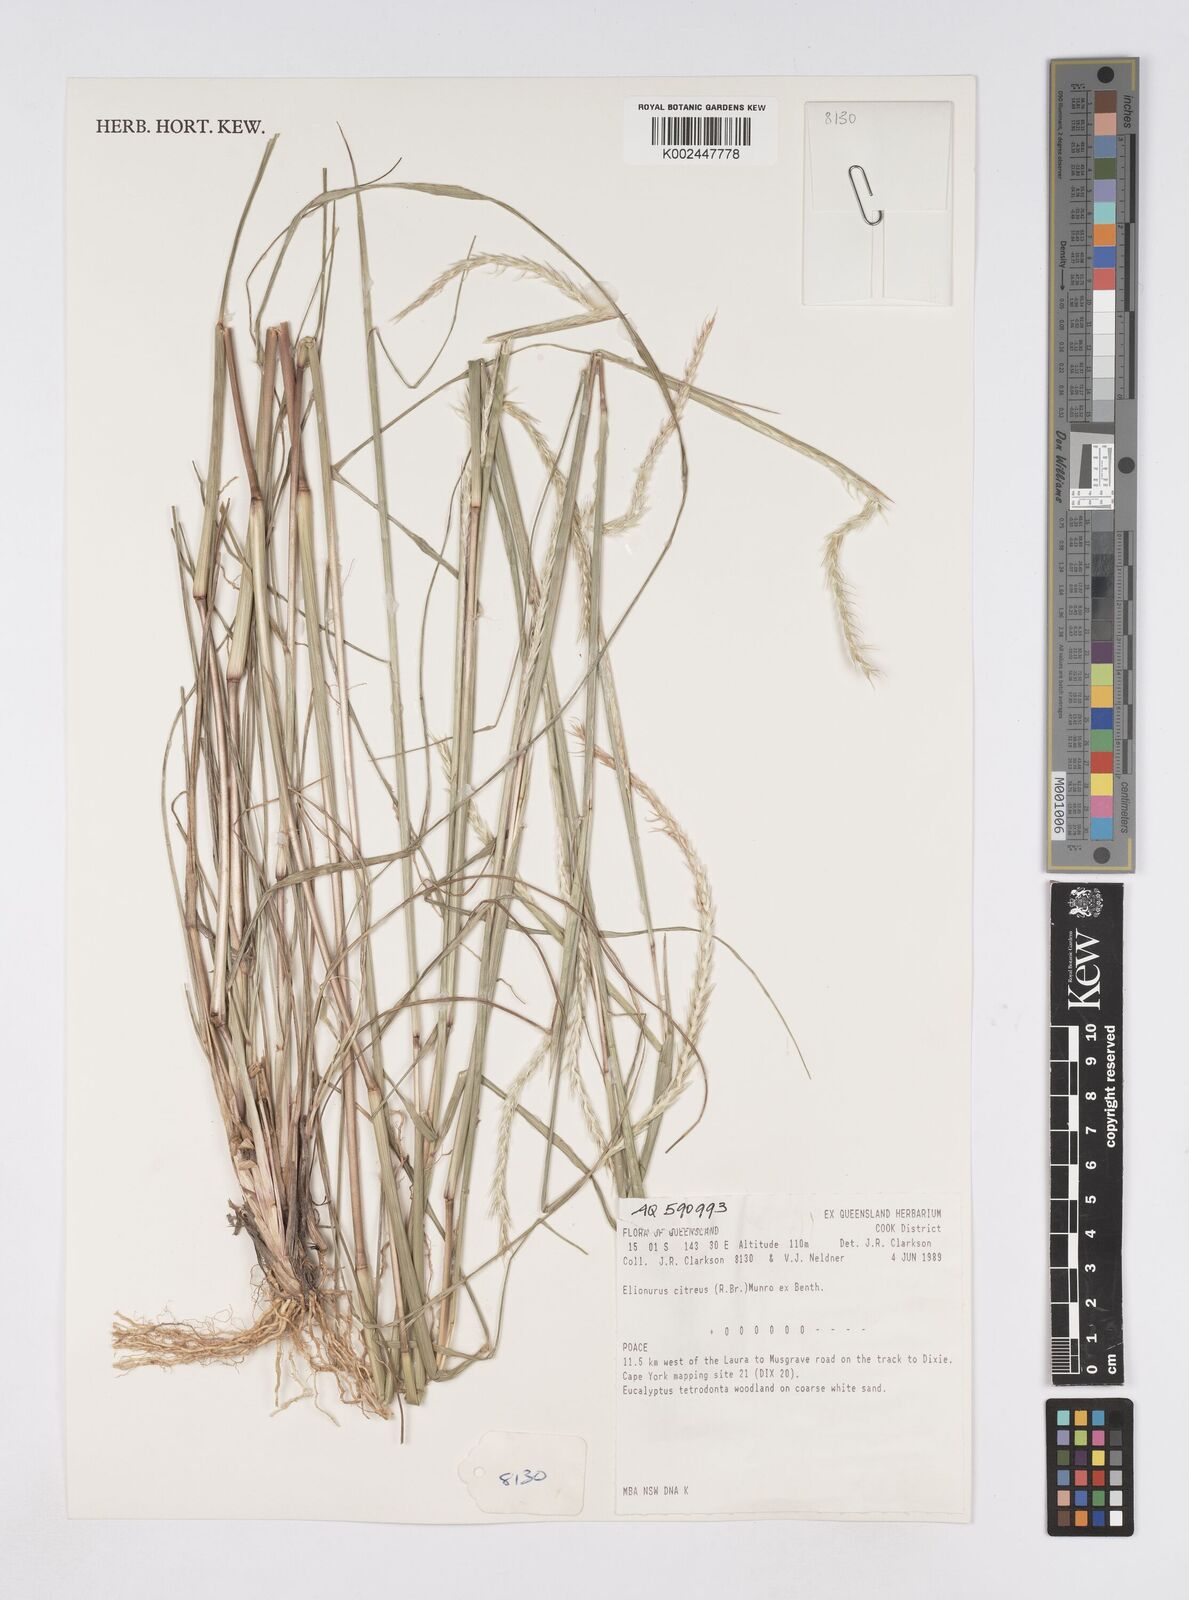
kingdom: Plantae
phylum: Tracheophyta
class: Liliopsida
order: Poales
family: Poaceae
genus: Elionurus
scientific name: Elionurus citreus
